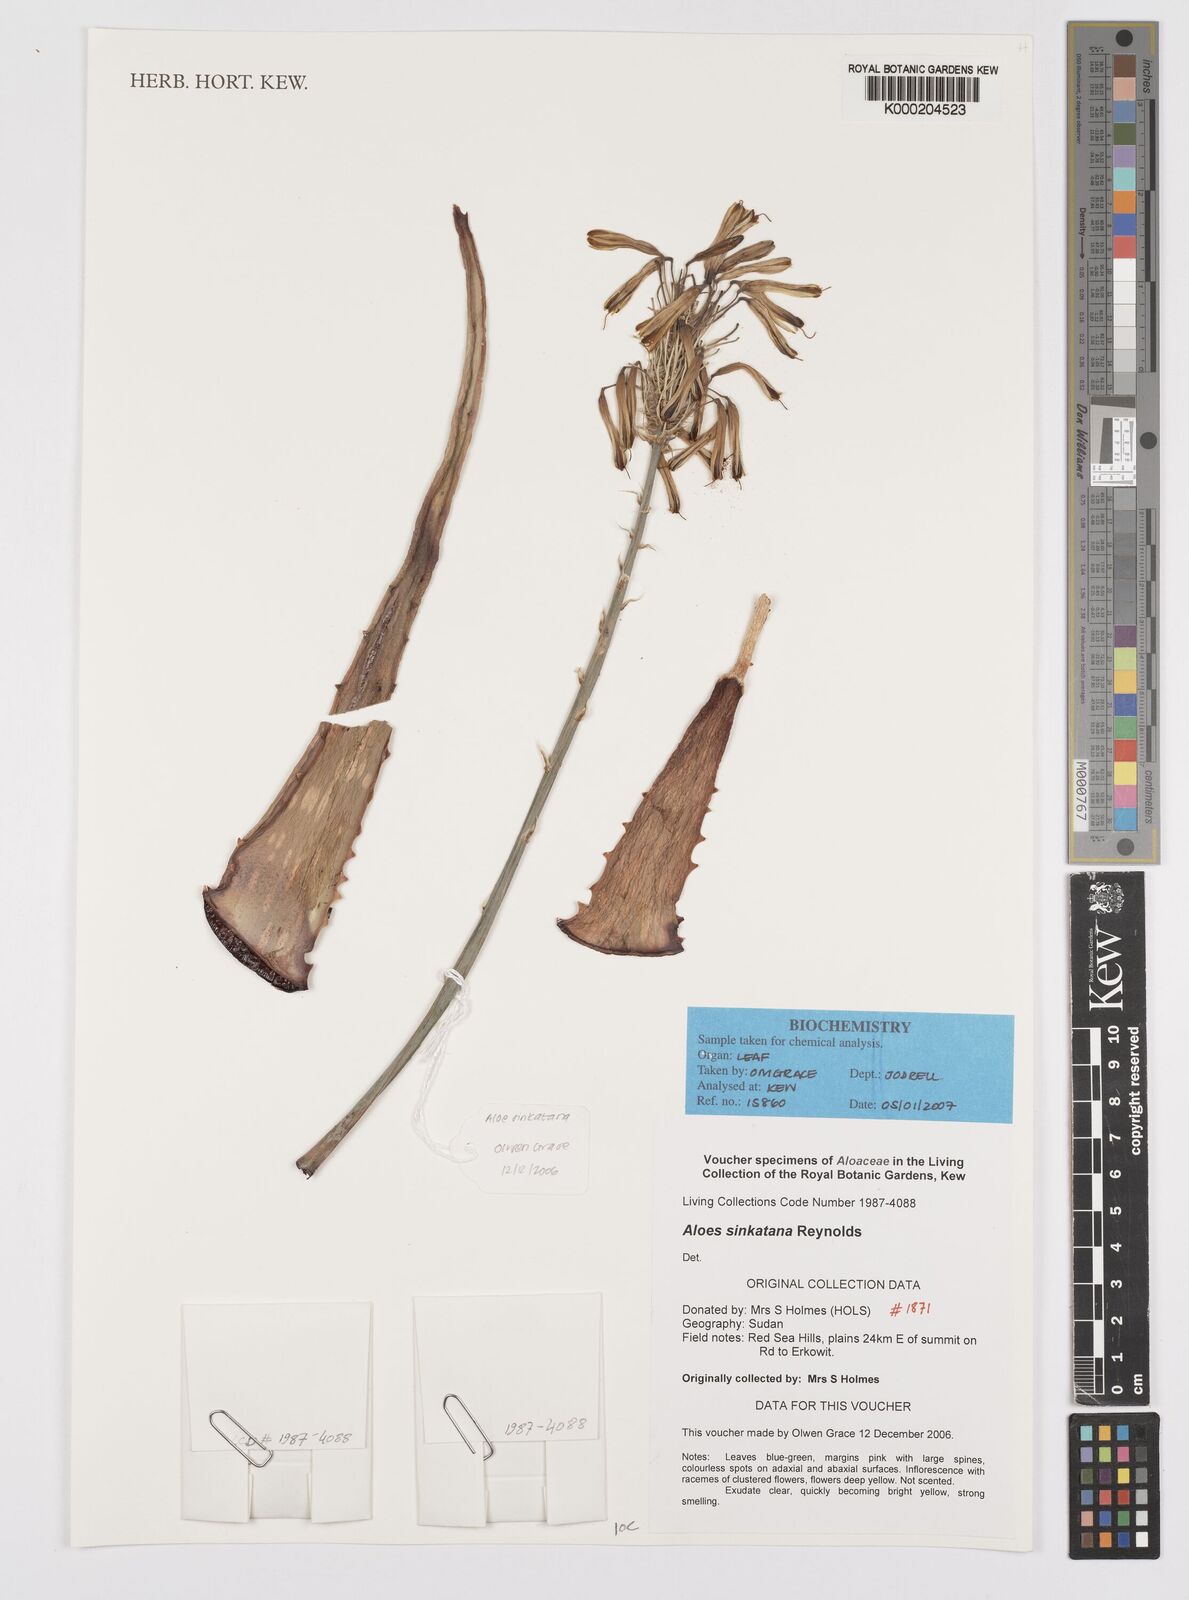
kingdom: Plantae
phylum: Tracheophyta
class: Liliopsida
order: Asparagales
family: Asphodelaceae
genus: Aloe
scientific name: Aloe sinkatana
